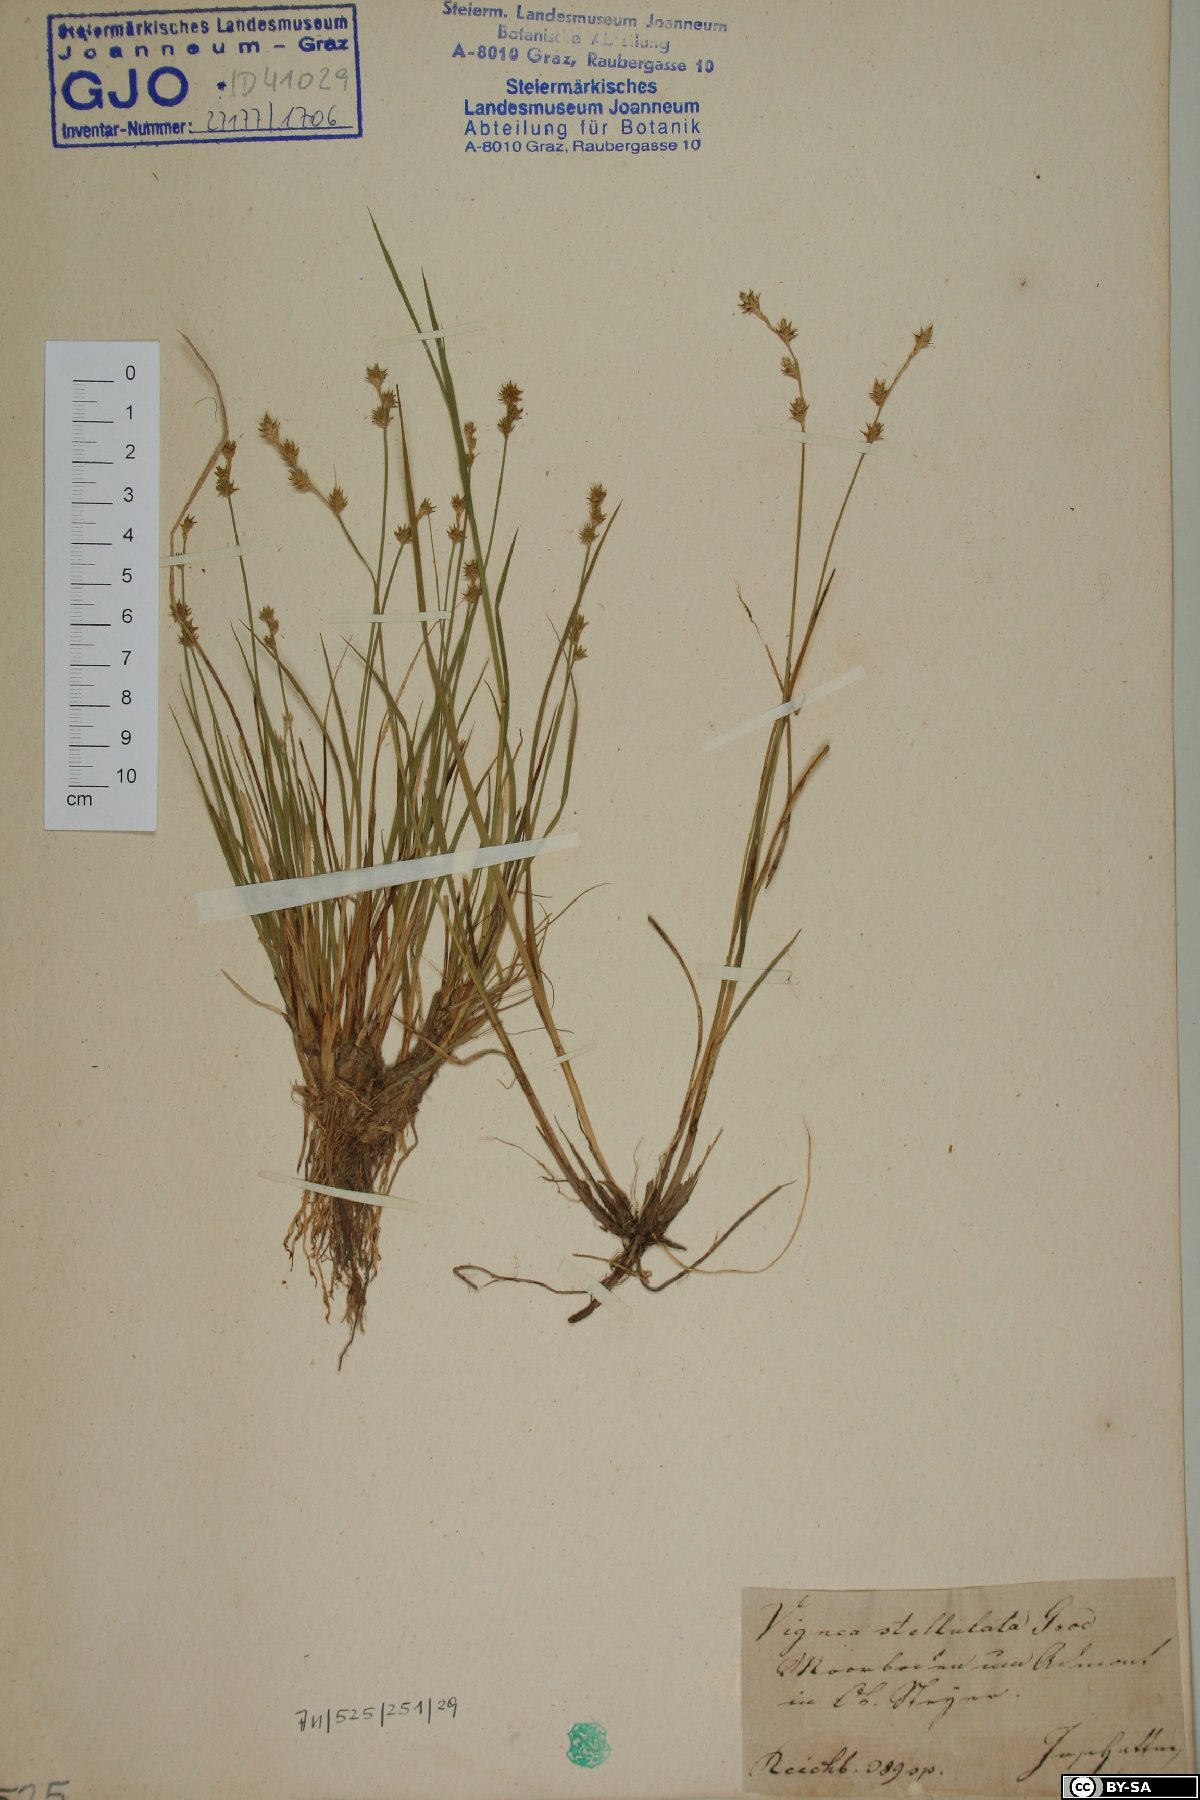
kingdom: Plantae
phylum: Tracheophyta
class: Liliopsida
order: Poales
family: Cyperaceae
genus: Carex
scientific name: Carex echinata
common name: Star sedge
